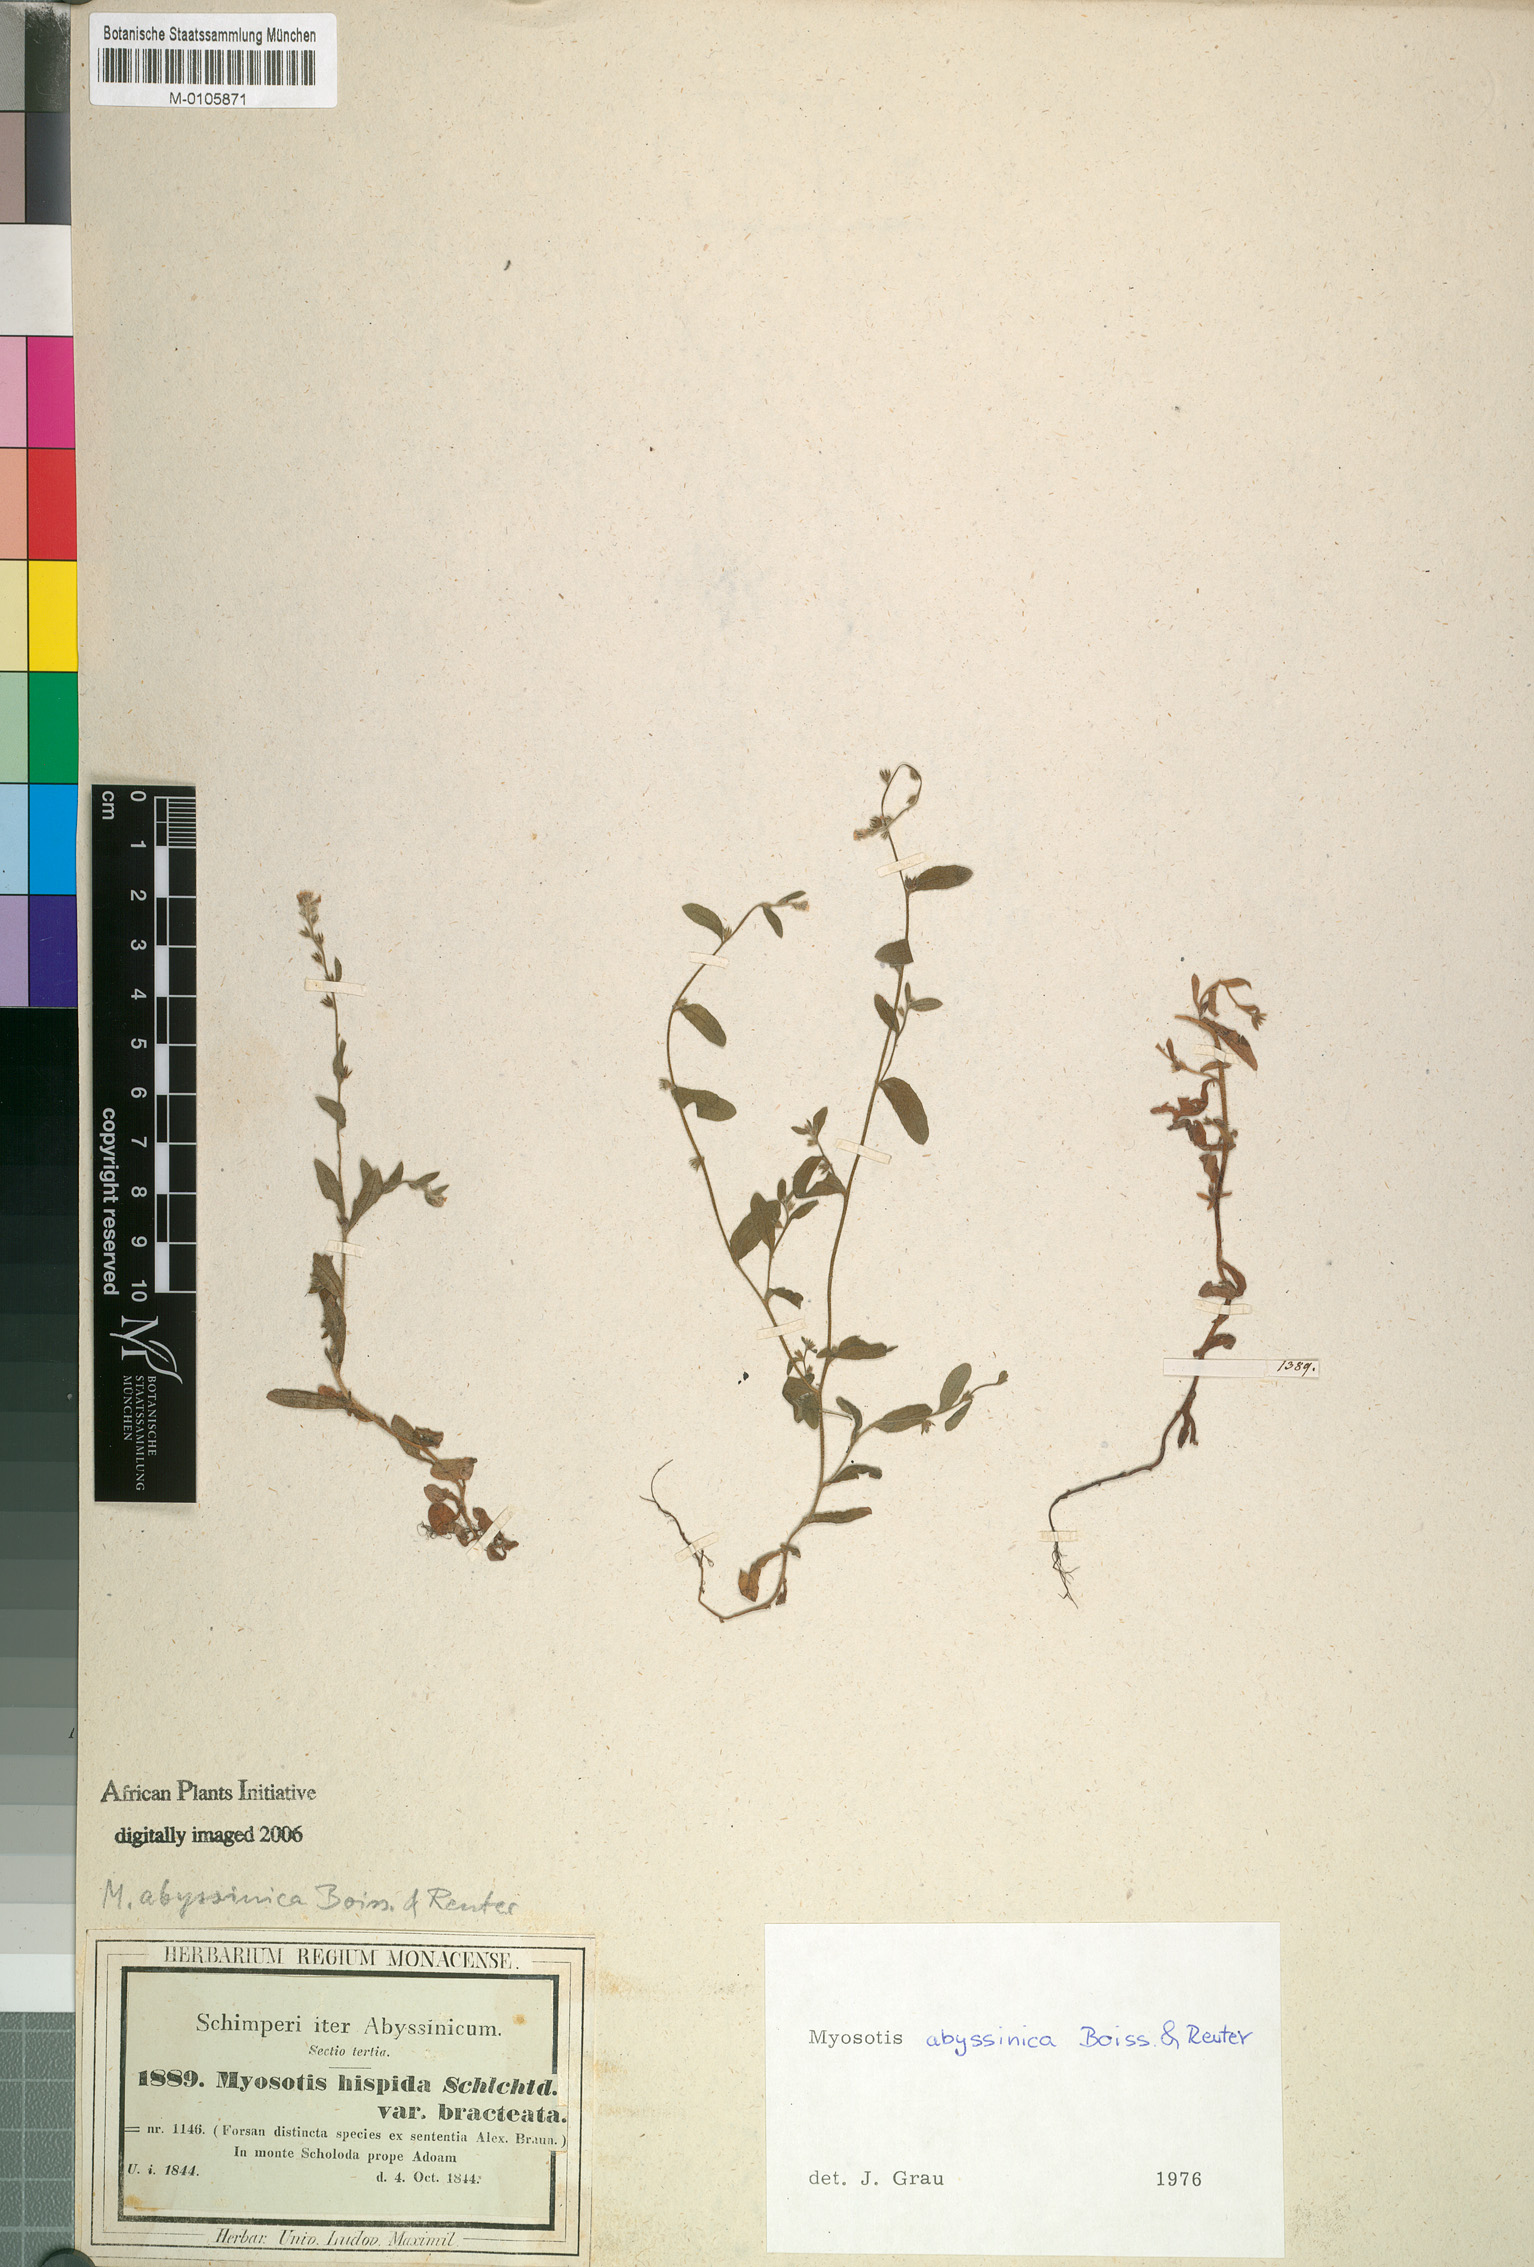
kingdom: Plantae
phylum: Tracheophyta
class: Magnoliopsida
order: Boraginales
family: Boraginaceae
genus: Myosotis
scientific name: Myosotis abyssinica
